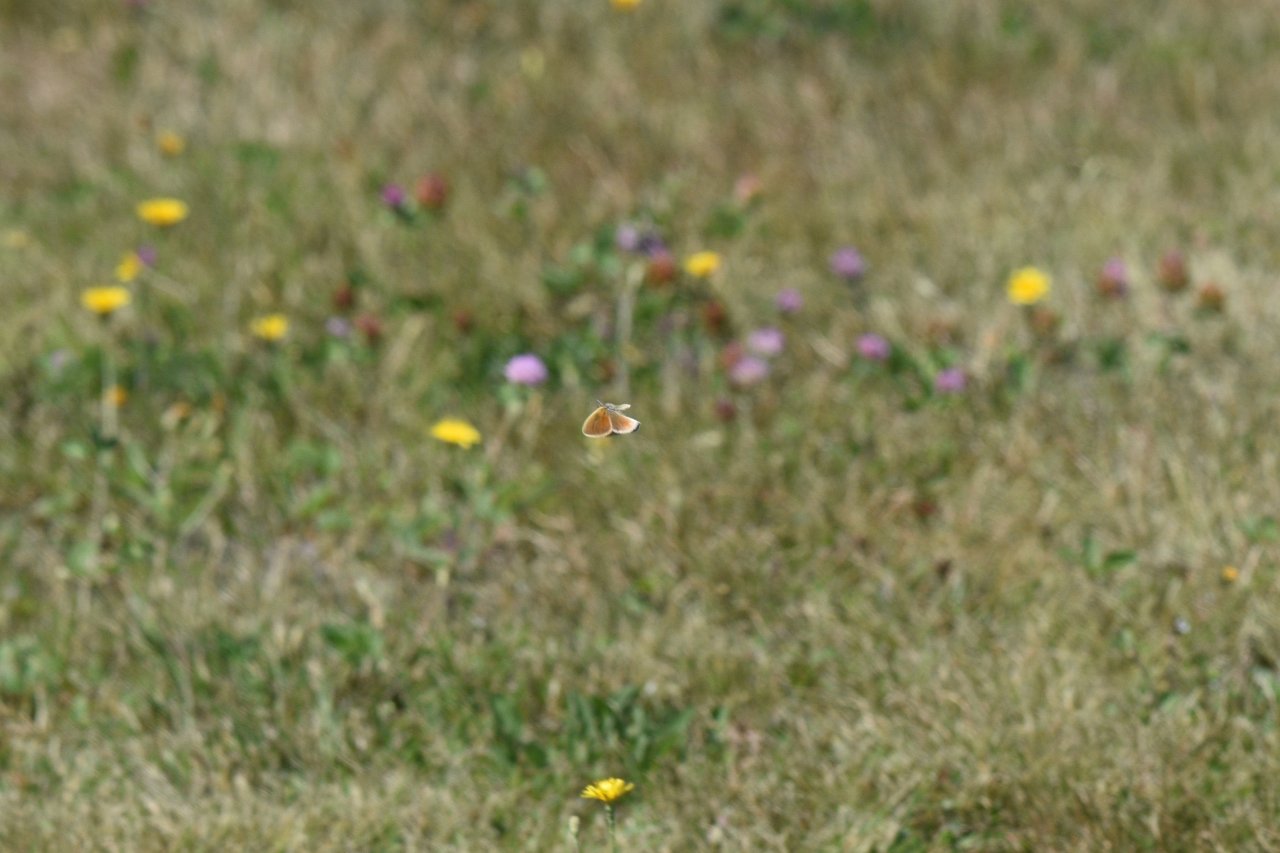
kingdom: Animalia
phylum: Arthropoda
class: Insecta
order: Lepidoptera
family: Nymphalidae
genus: Coenonympha
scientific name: Coenonympha tullia
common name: Large Heath
